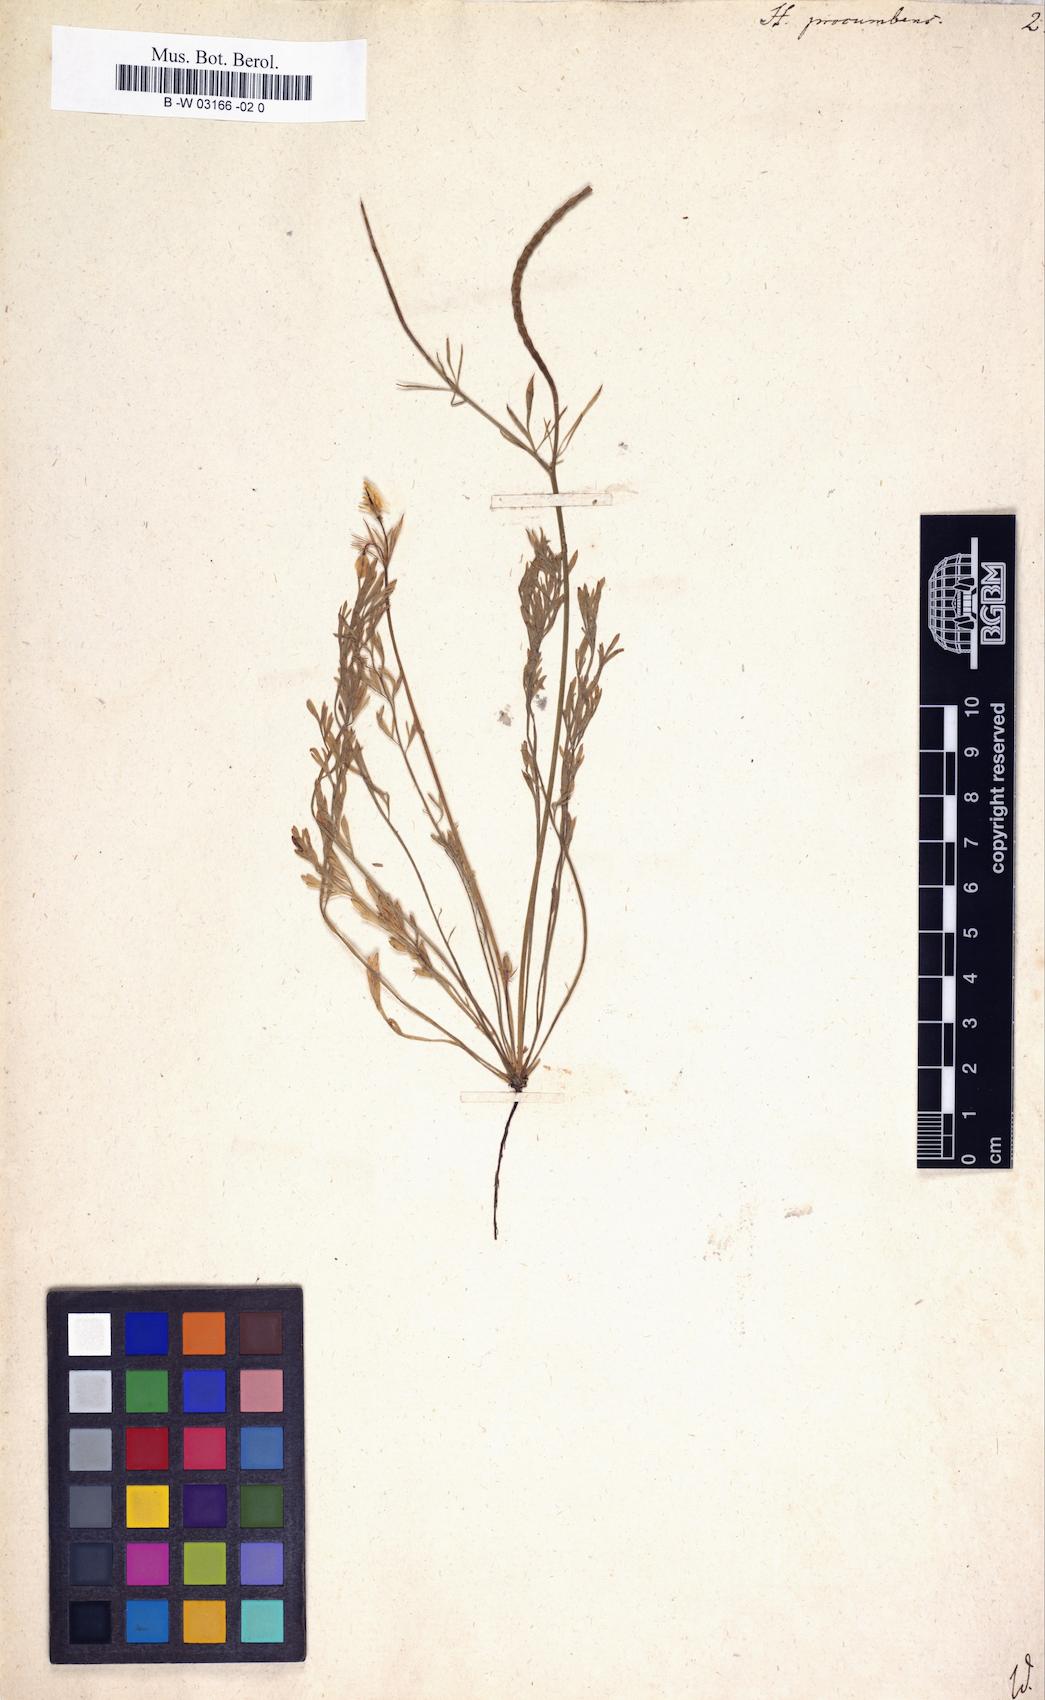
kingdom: Plantae
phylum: Tracheophyta
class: Magnoliopsida
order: Ranunculales
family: Papaveraceae
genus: Hypecoum
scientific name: Hypecoum procumbens
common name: Procumbent hypecoum
